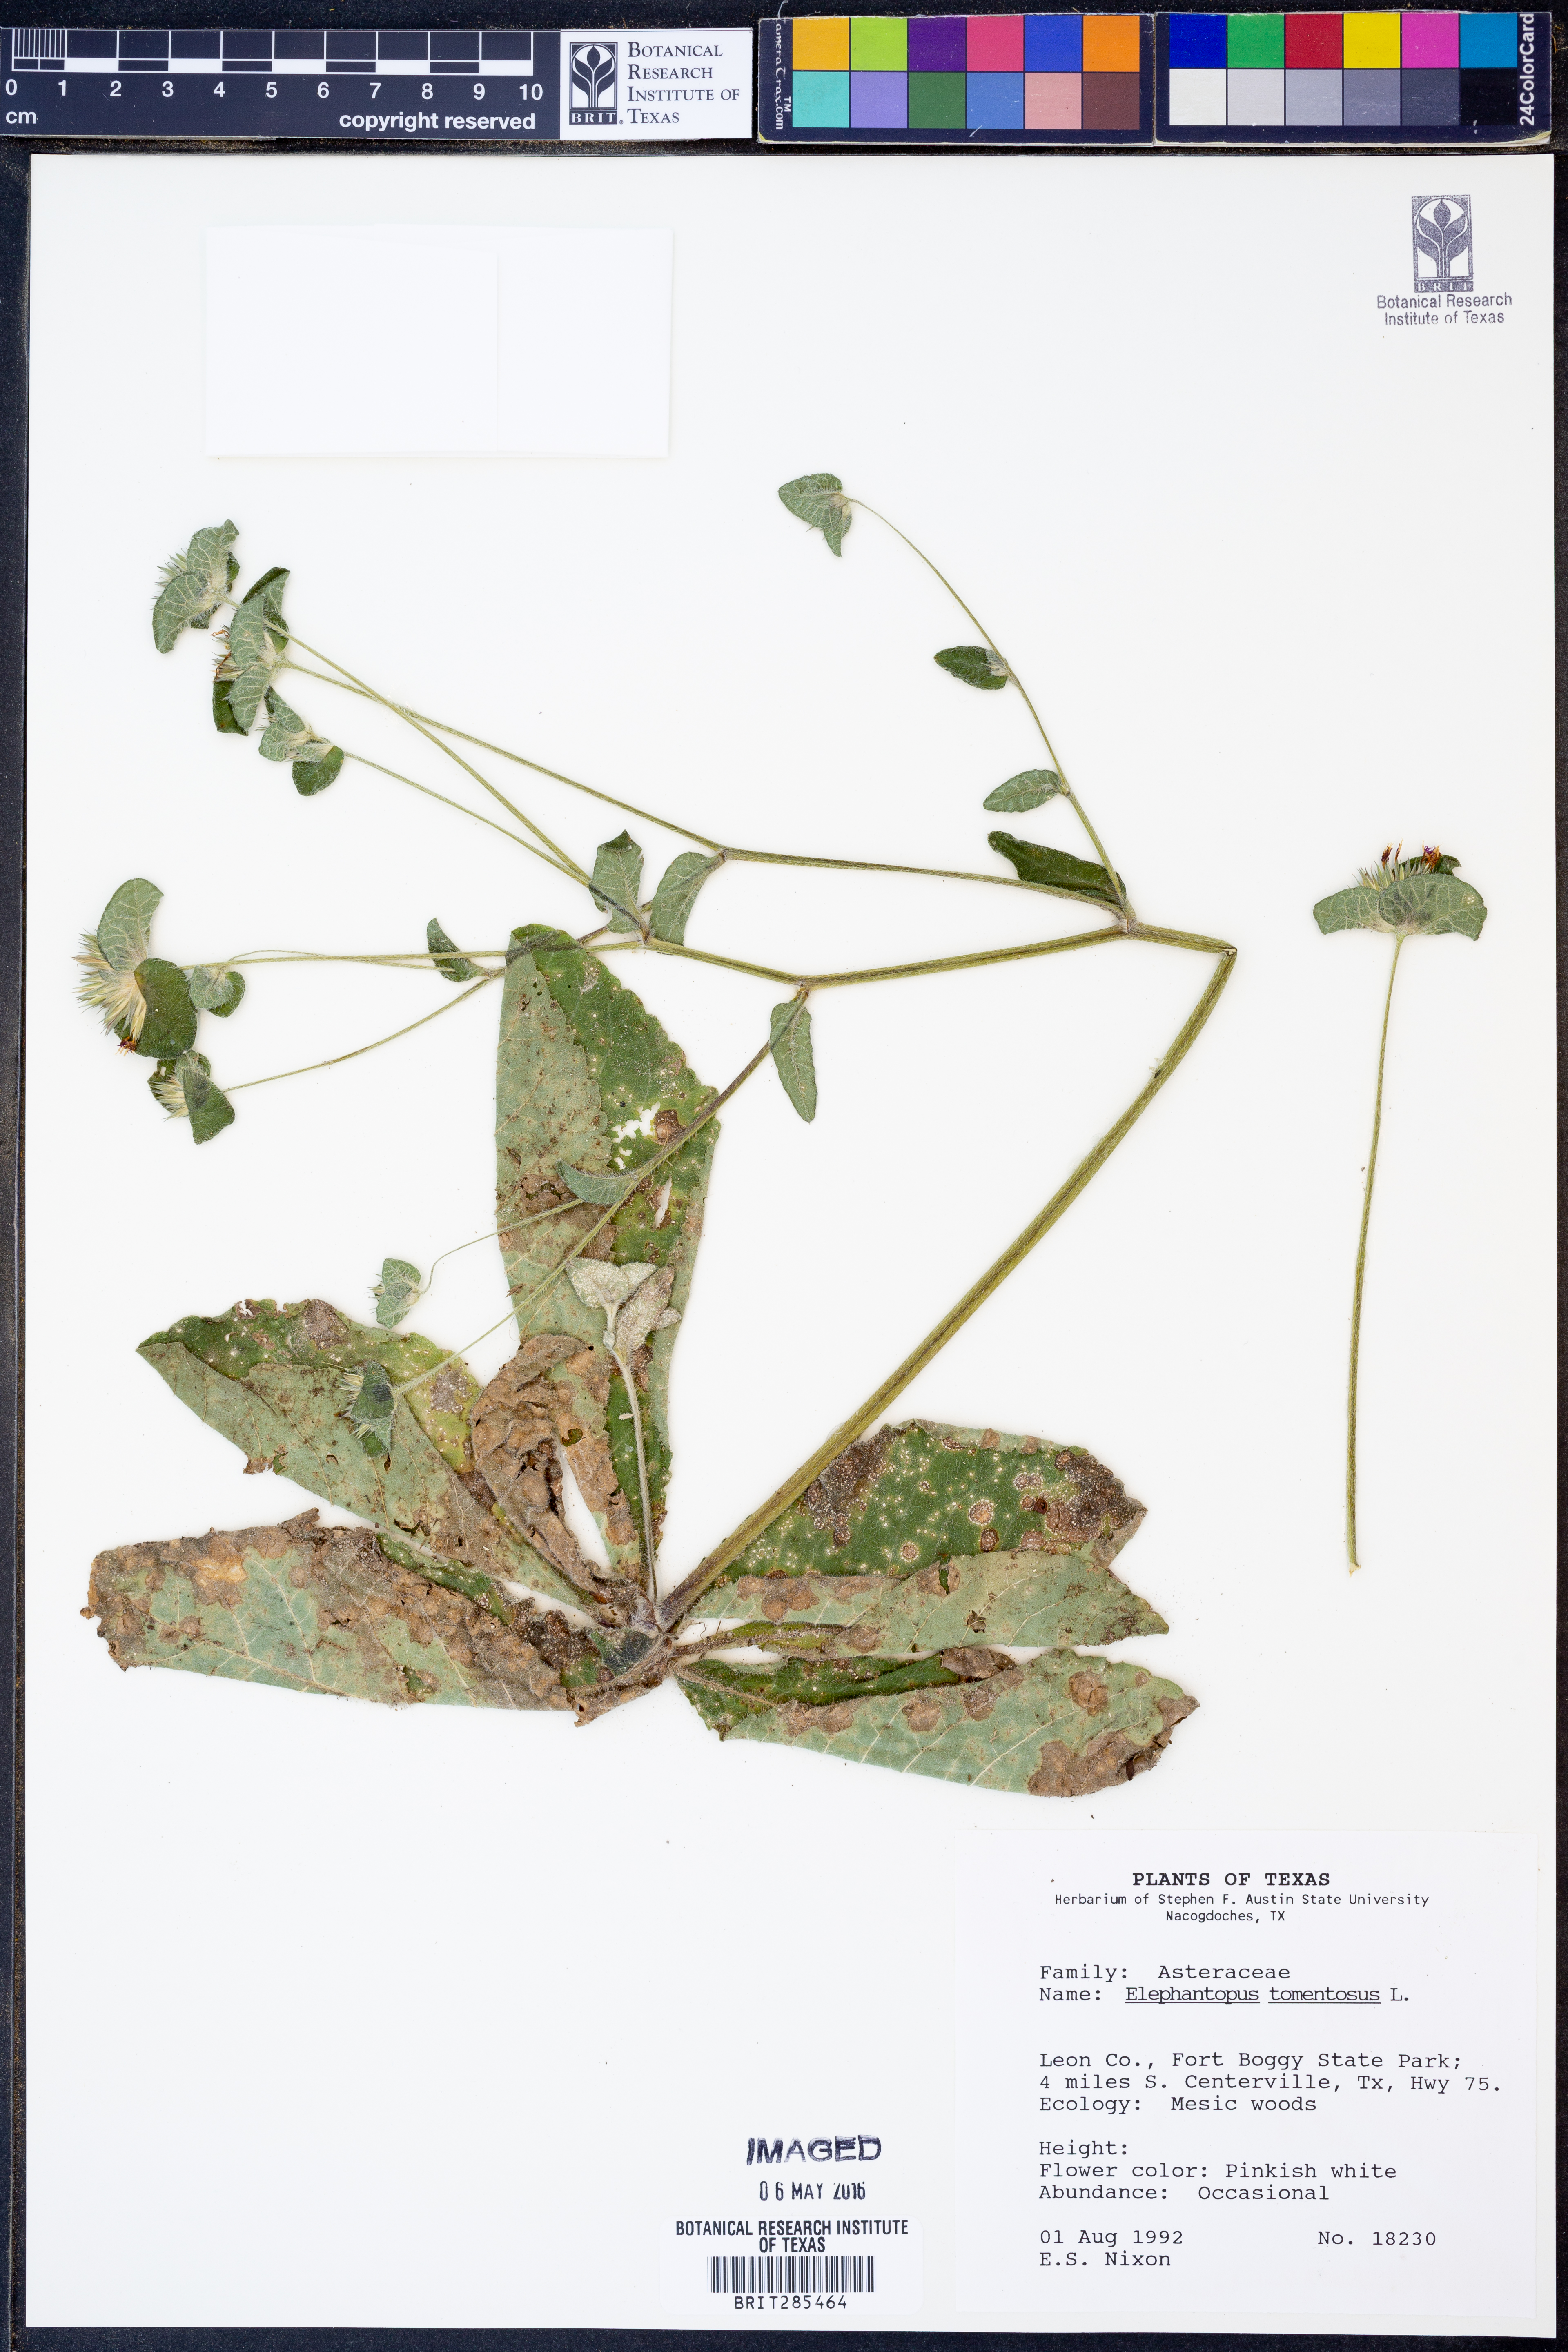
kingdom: Plantae
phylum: Tracheophyta
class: Magnoliopsida
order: Asterales
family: Asteraceae
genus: Elephantopus
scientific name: Elephantopus tomentosus
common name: Tobacco-weed
